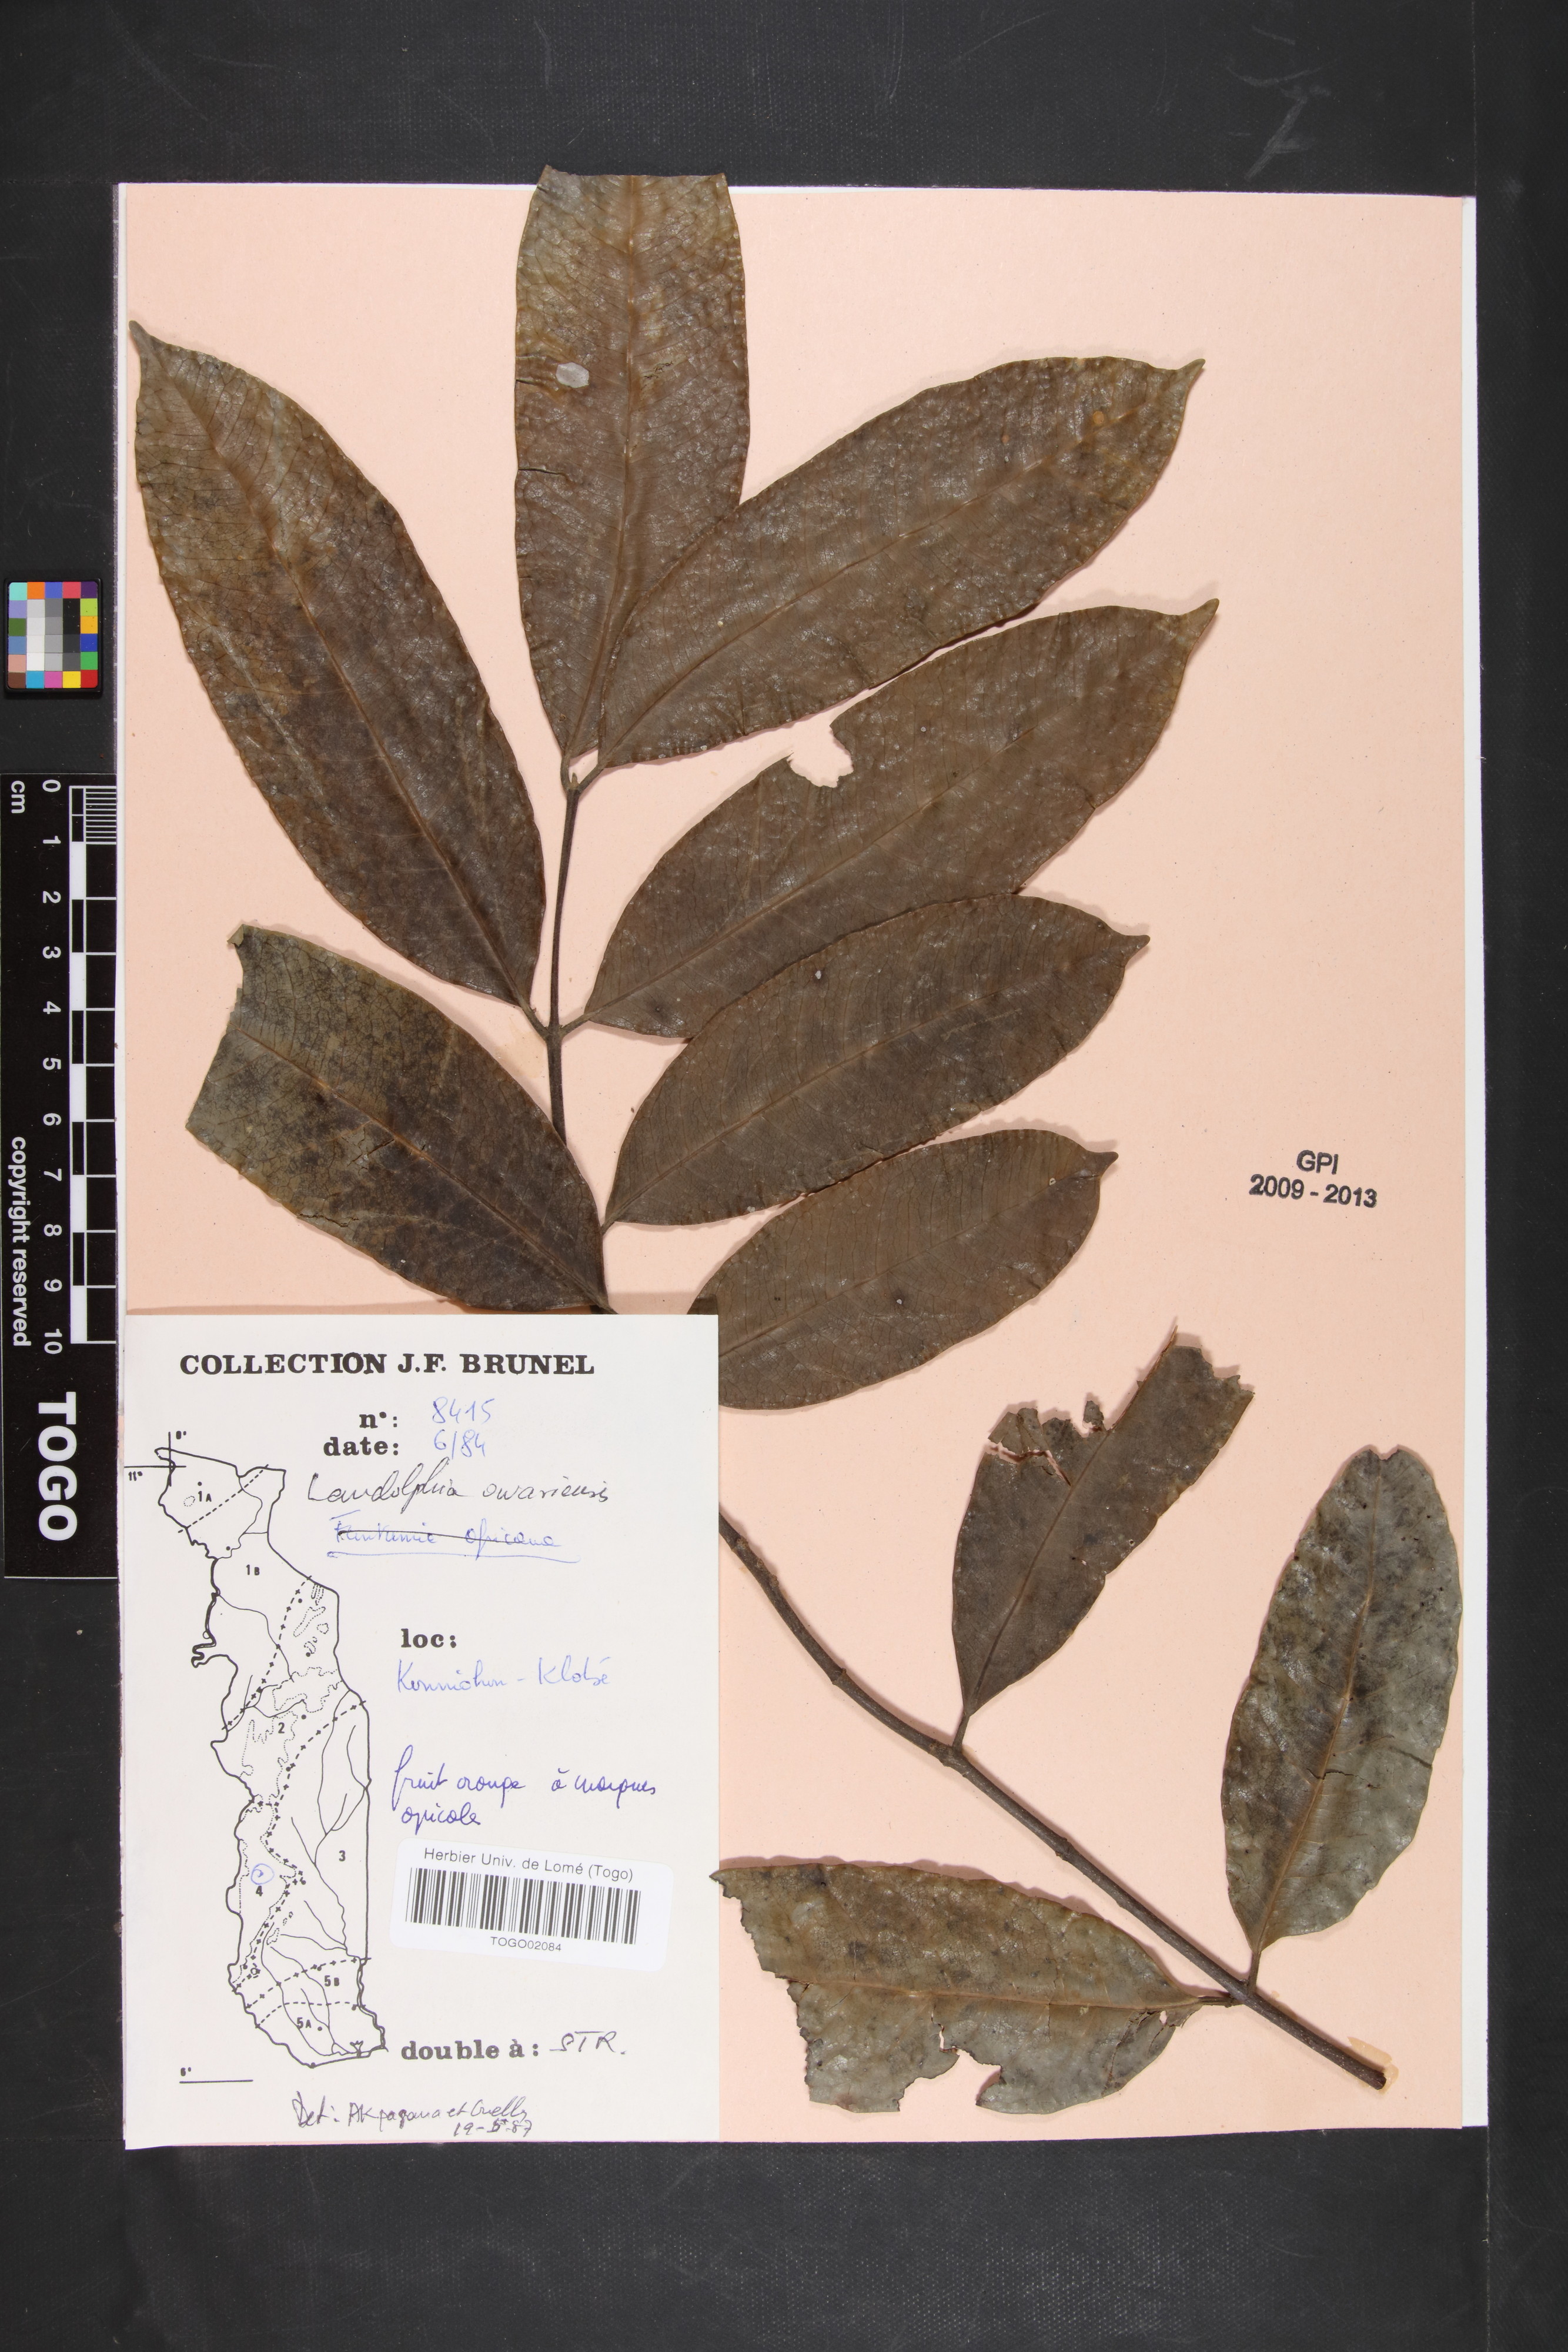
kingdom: Plantae
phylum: Tracheophyta
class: Magnoliopsida
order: Gentianales
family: Apocynaceae
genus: Landolphia
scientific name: Landolphia owariensis
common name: White-ball-rubber
